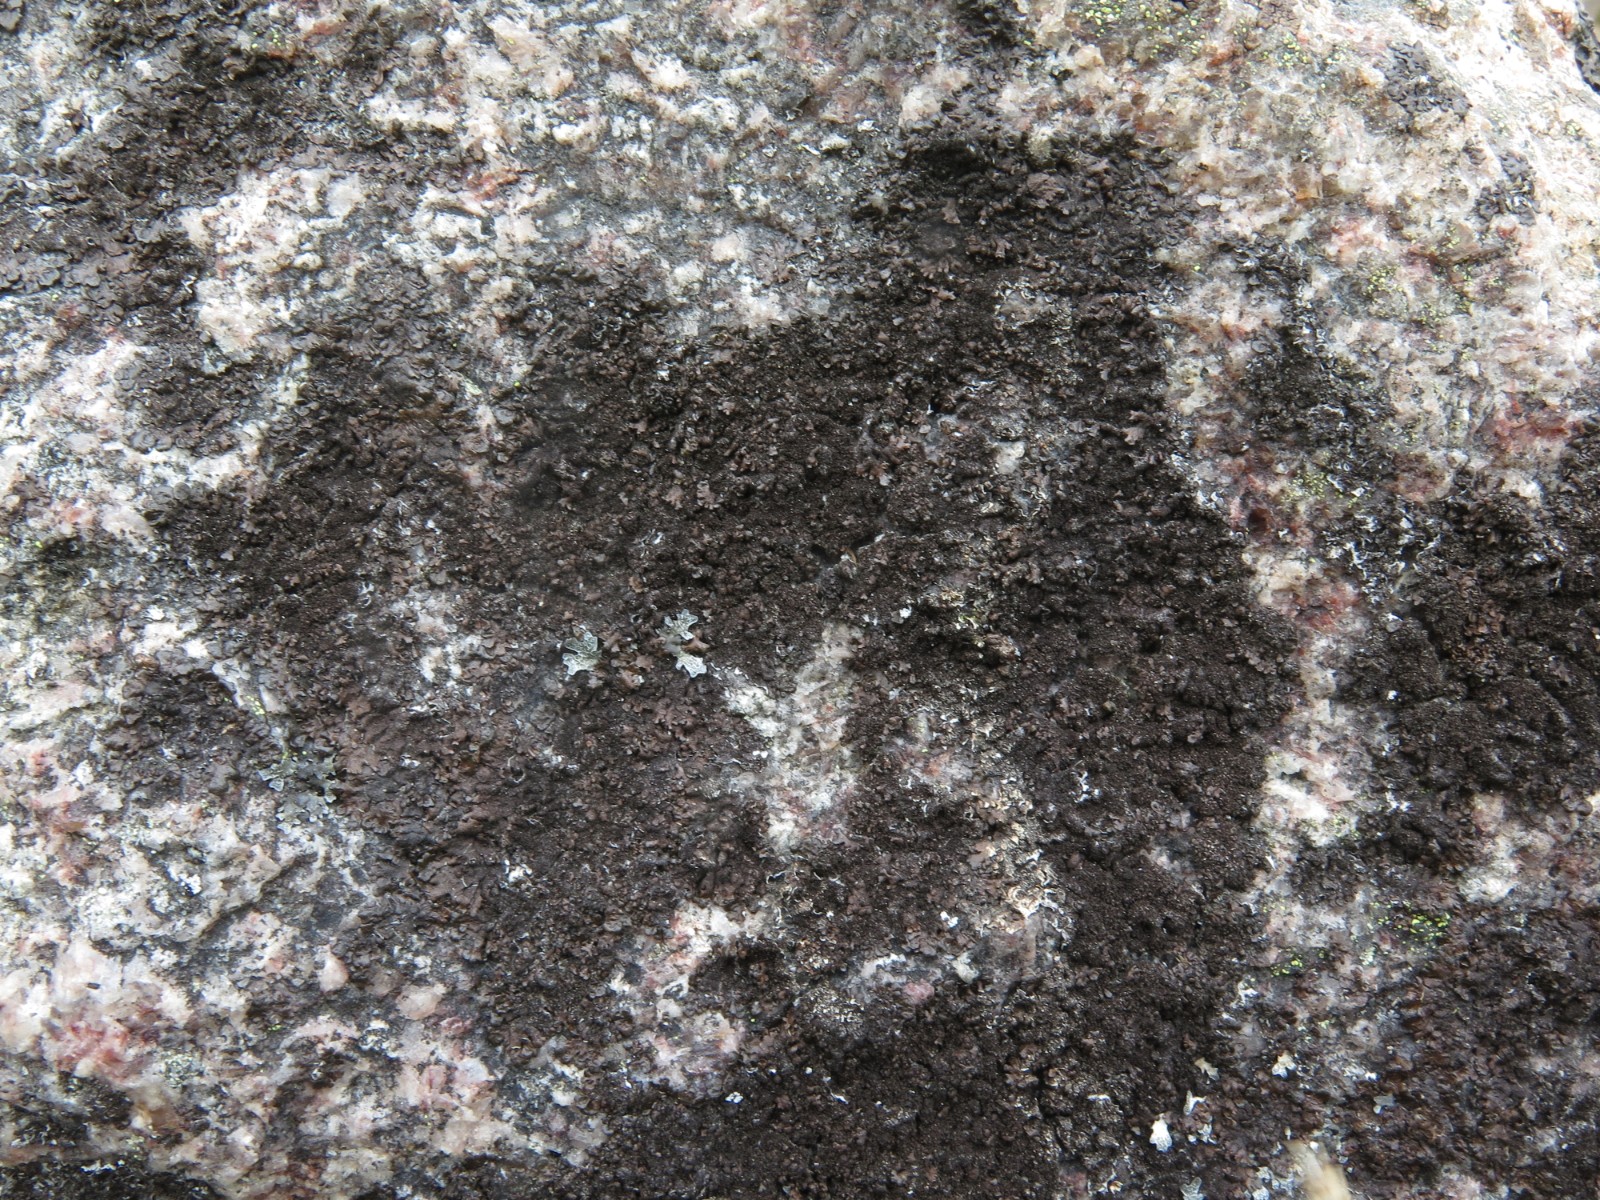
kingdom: Fungi
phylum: Ascomycota
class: Lecanoromycetes
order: Lecanorales
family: Parmeliaceae
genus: Melanelixia
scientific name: Melanelixia fuliginosa
